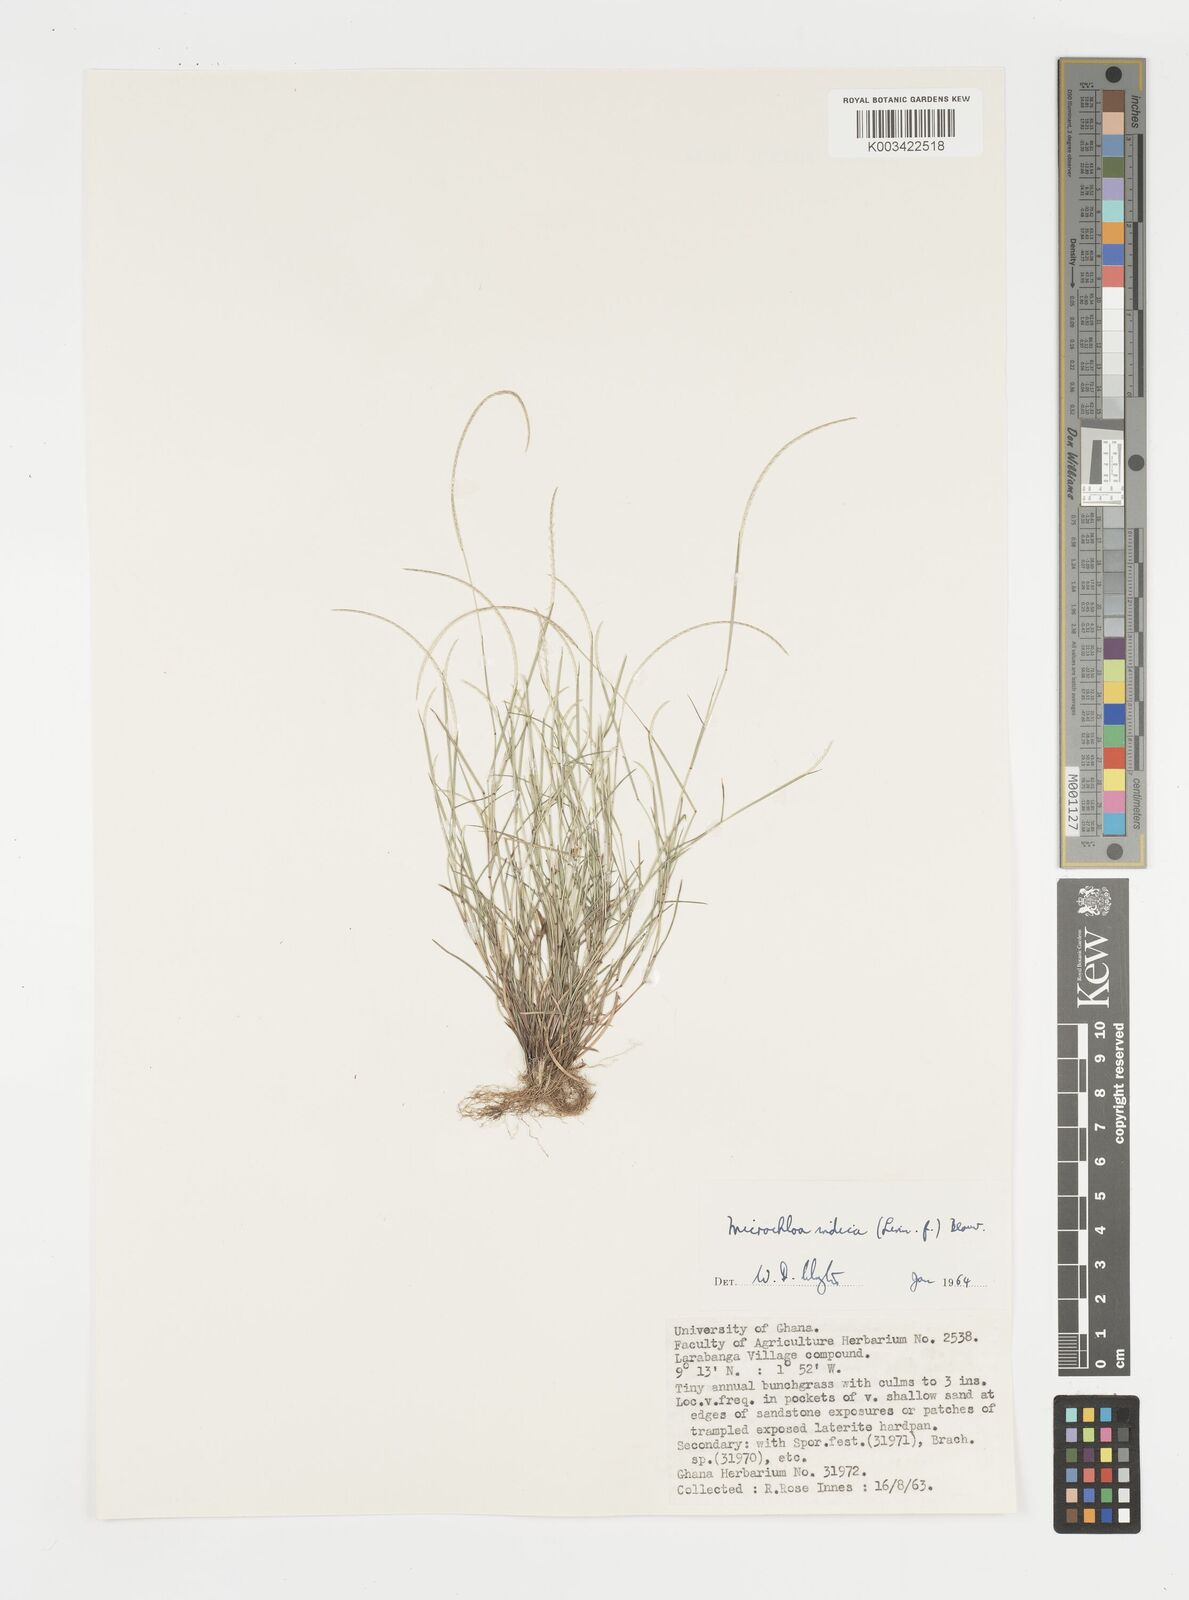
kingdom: Plantae
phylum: Tracheophyta
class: Liliopsida
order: Poales
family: Poaceae
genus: Microchloa
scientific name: Microchloa indica
